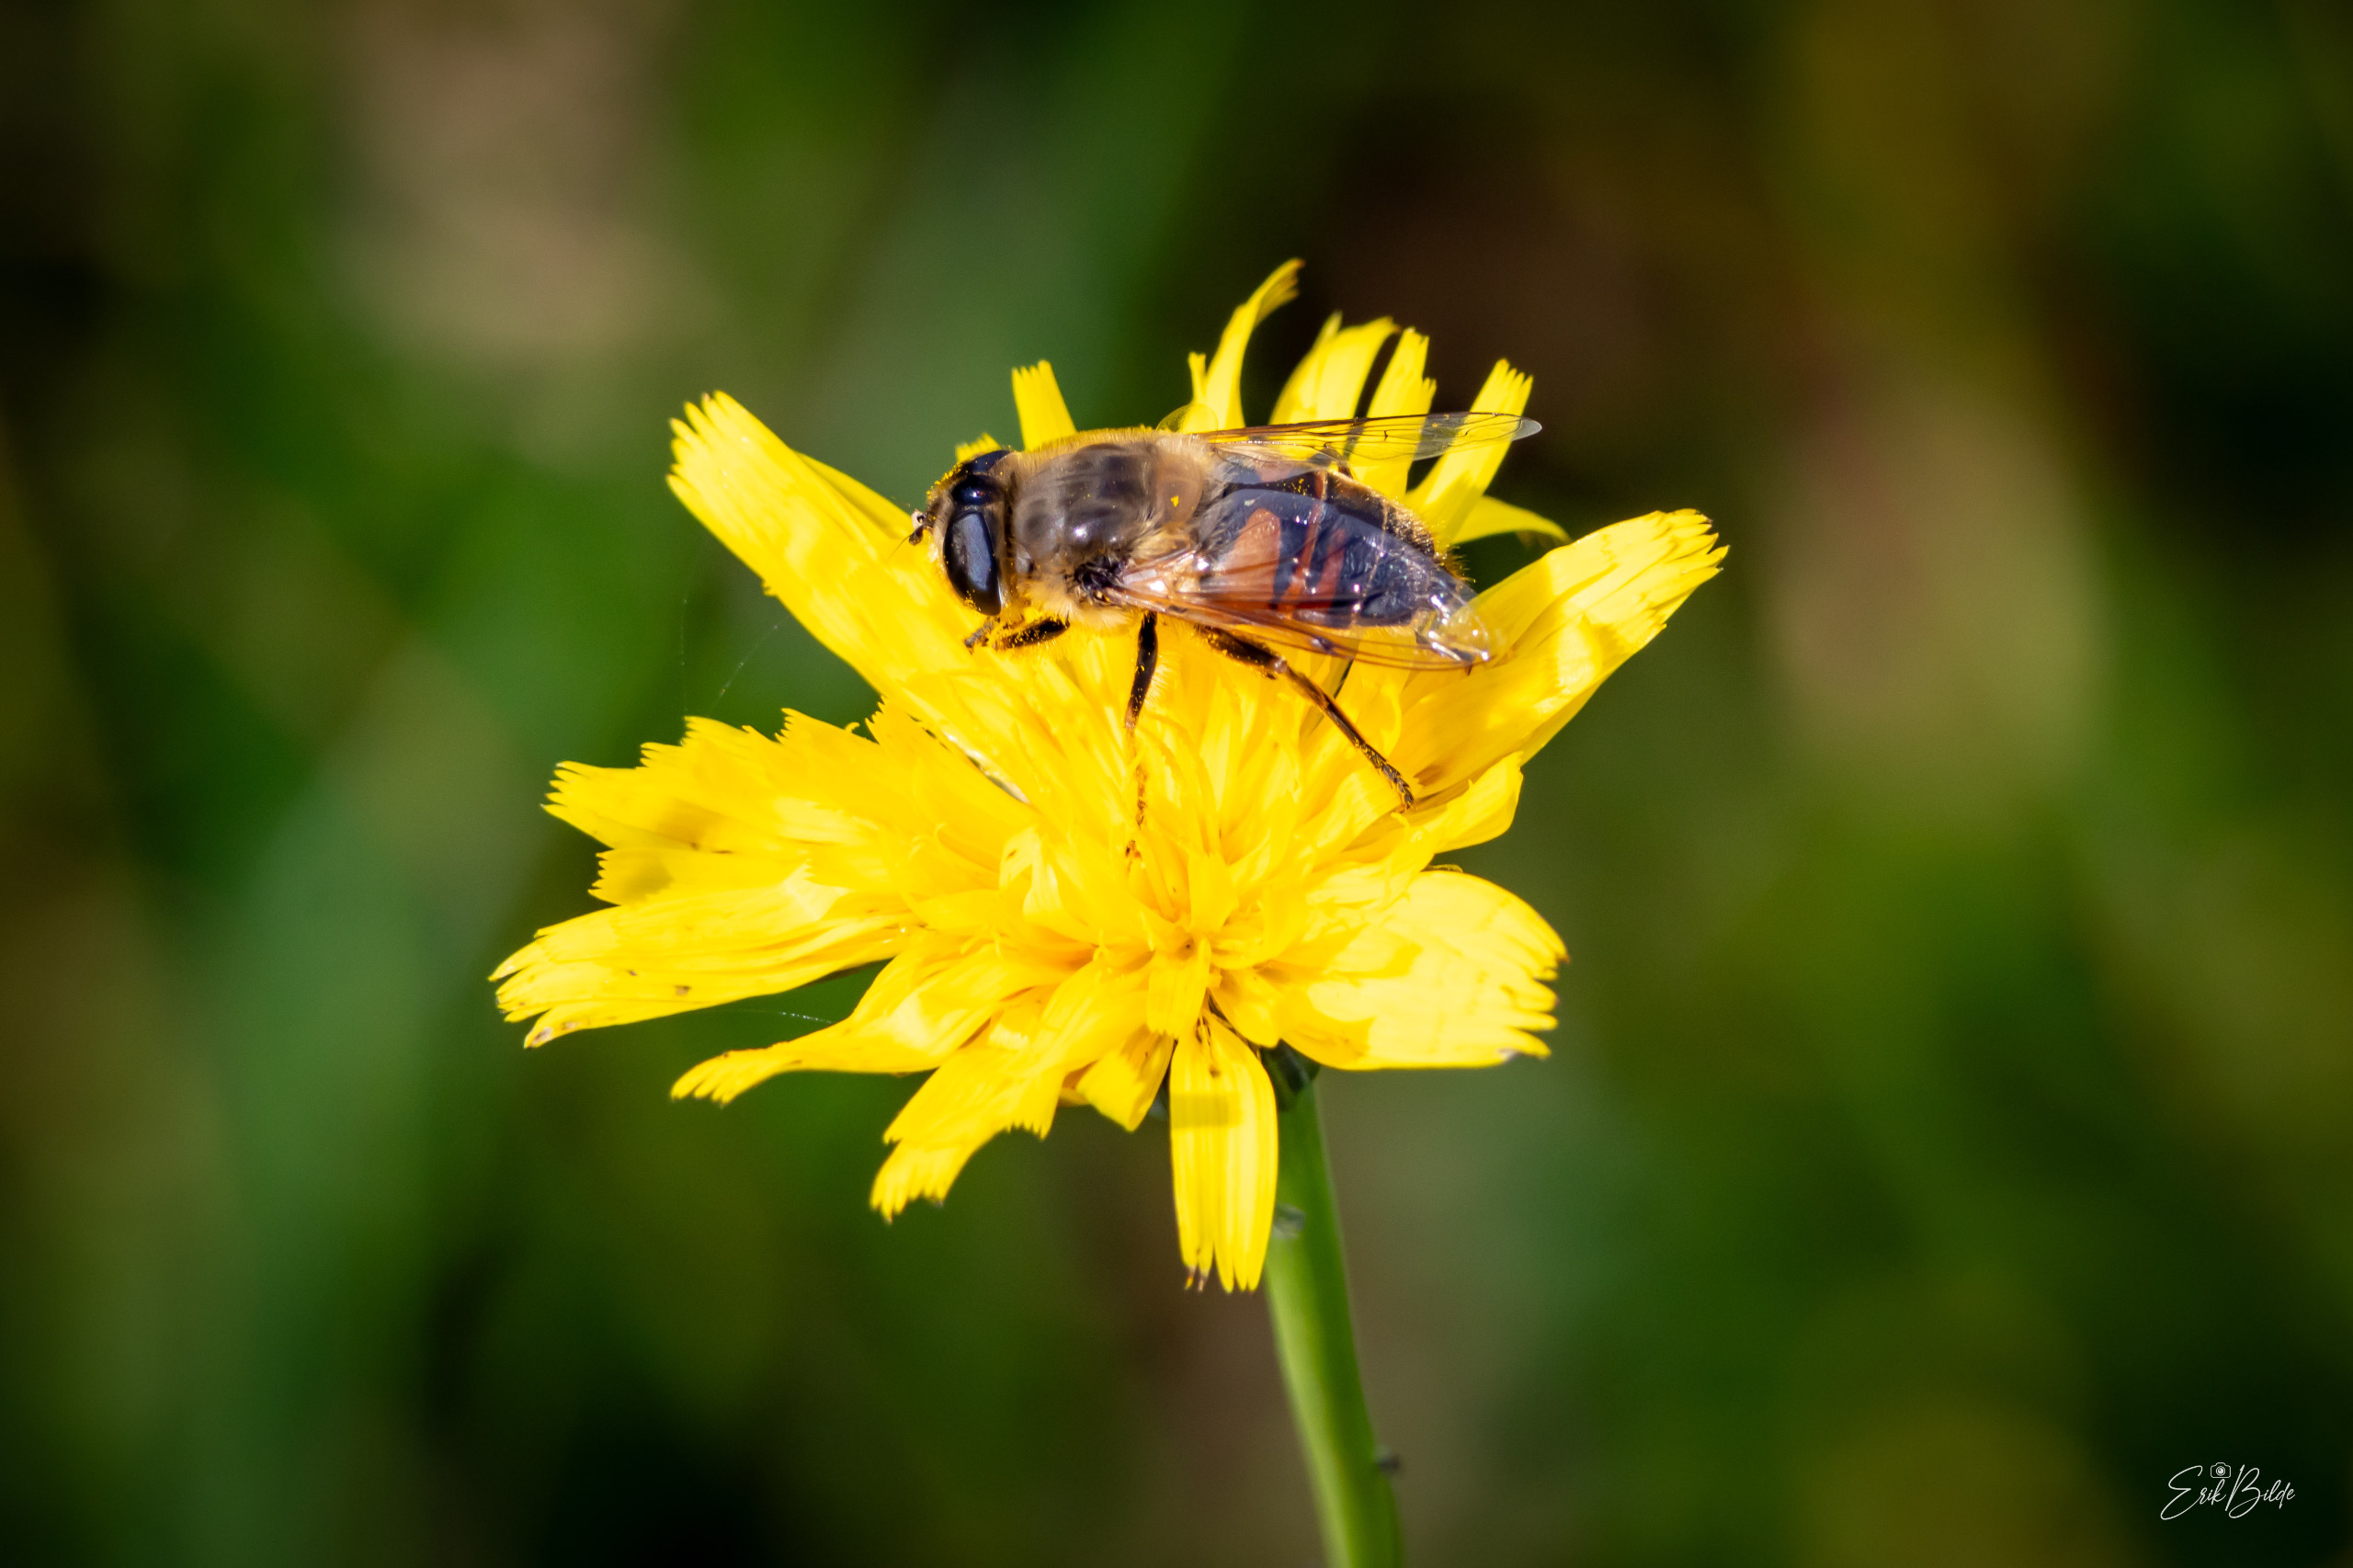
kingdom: Animalia
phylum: Arthropoda
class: Insecta
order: Diptera
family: Syrphidae
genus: Eristalis
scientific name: Eristalis tenax
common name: Droneflue
